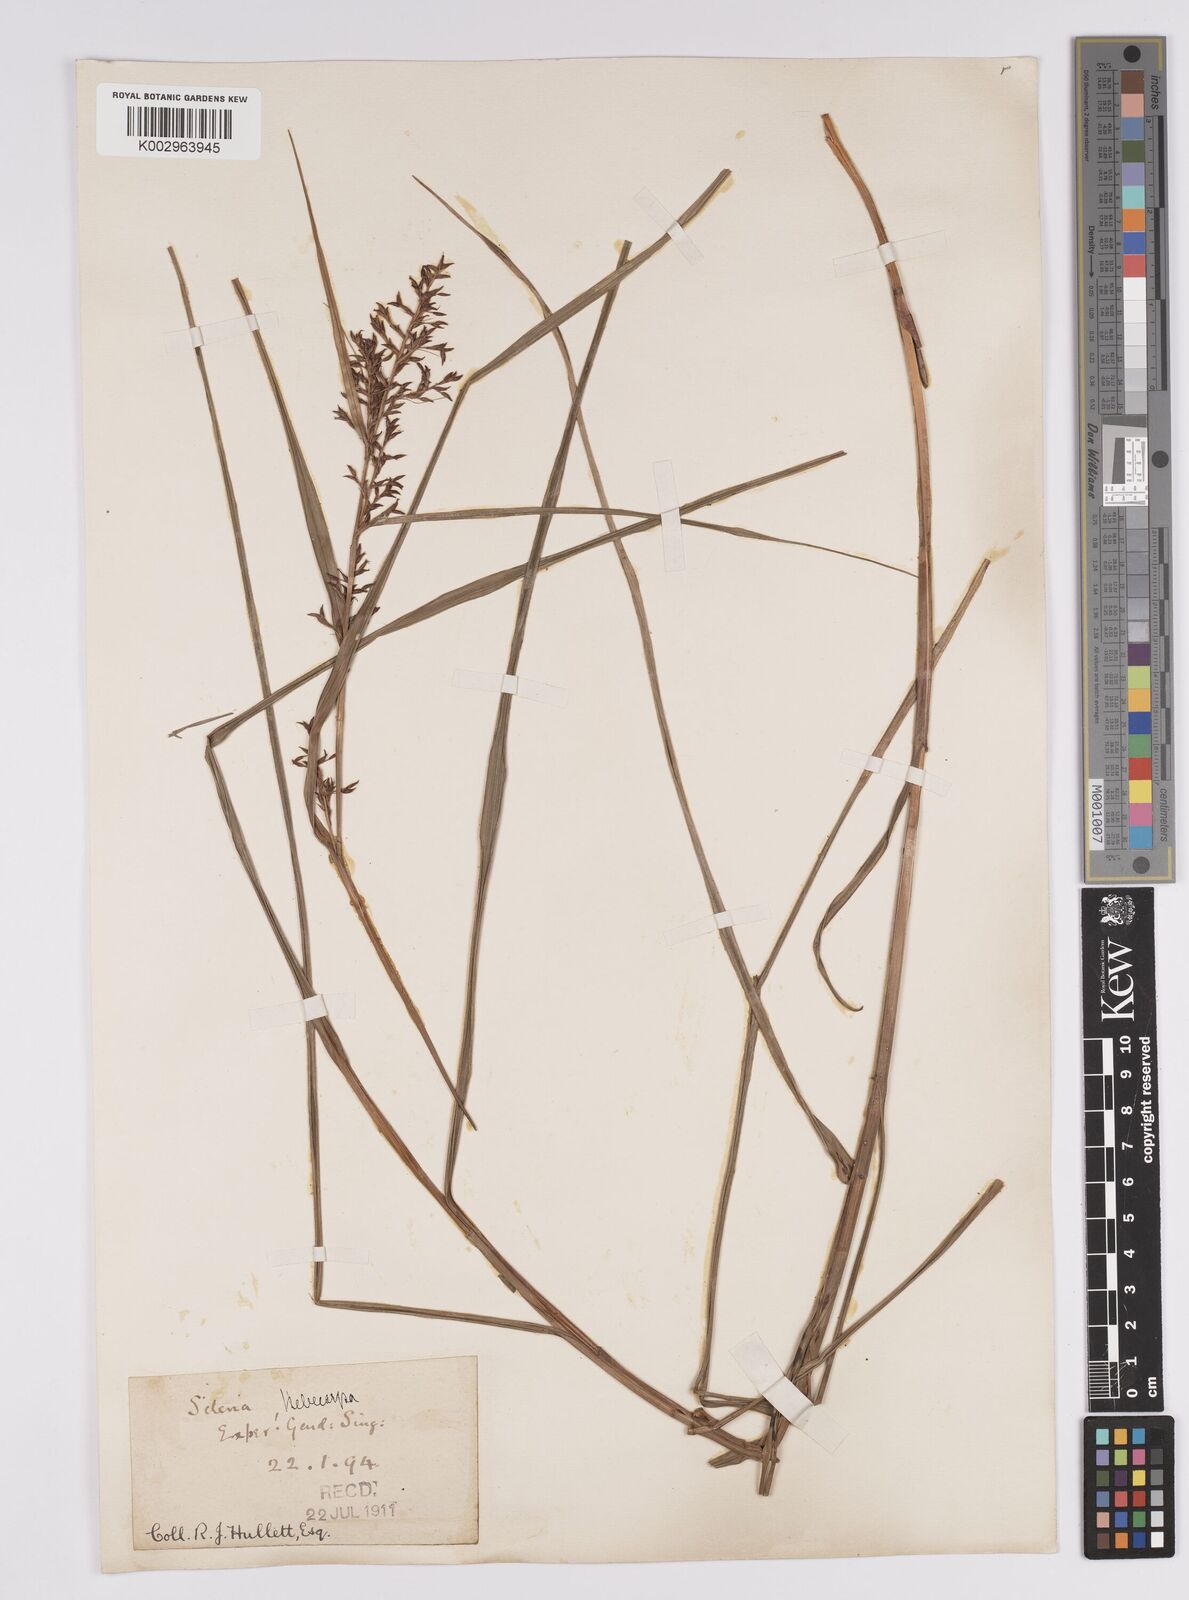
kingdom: Plantae
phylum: Tracheophyta
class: Liliopsida
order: Poales
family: Cyperaceae
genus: Scleria
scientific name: Scleria levis
